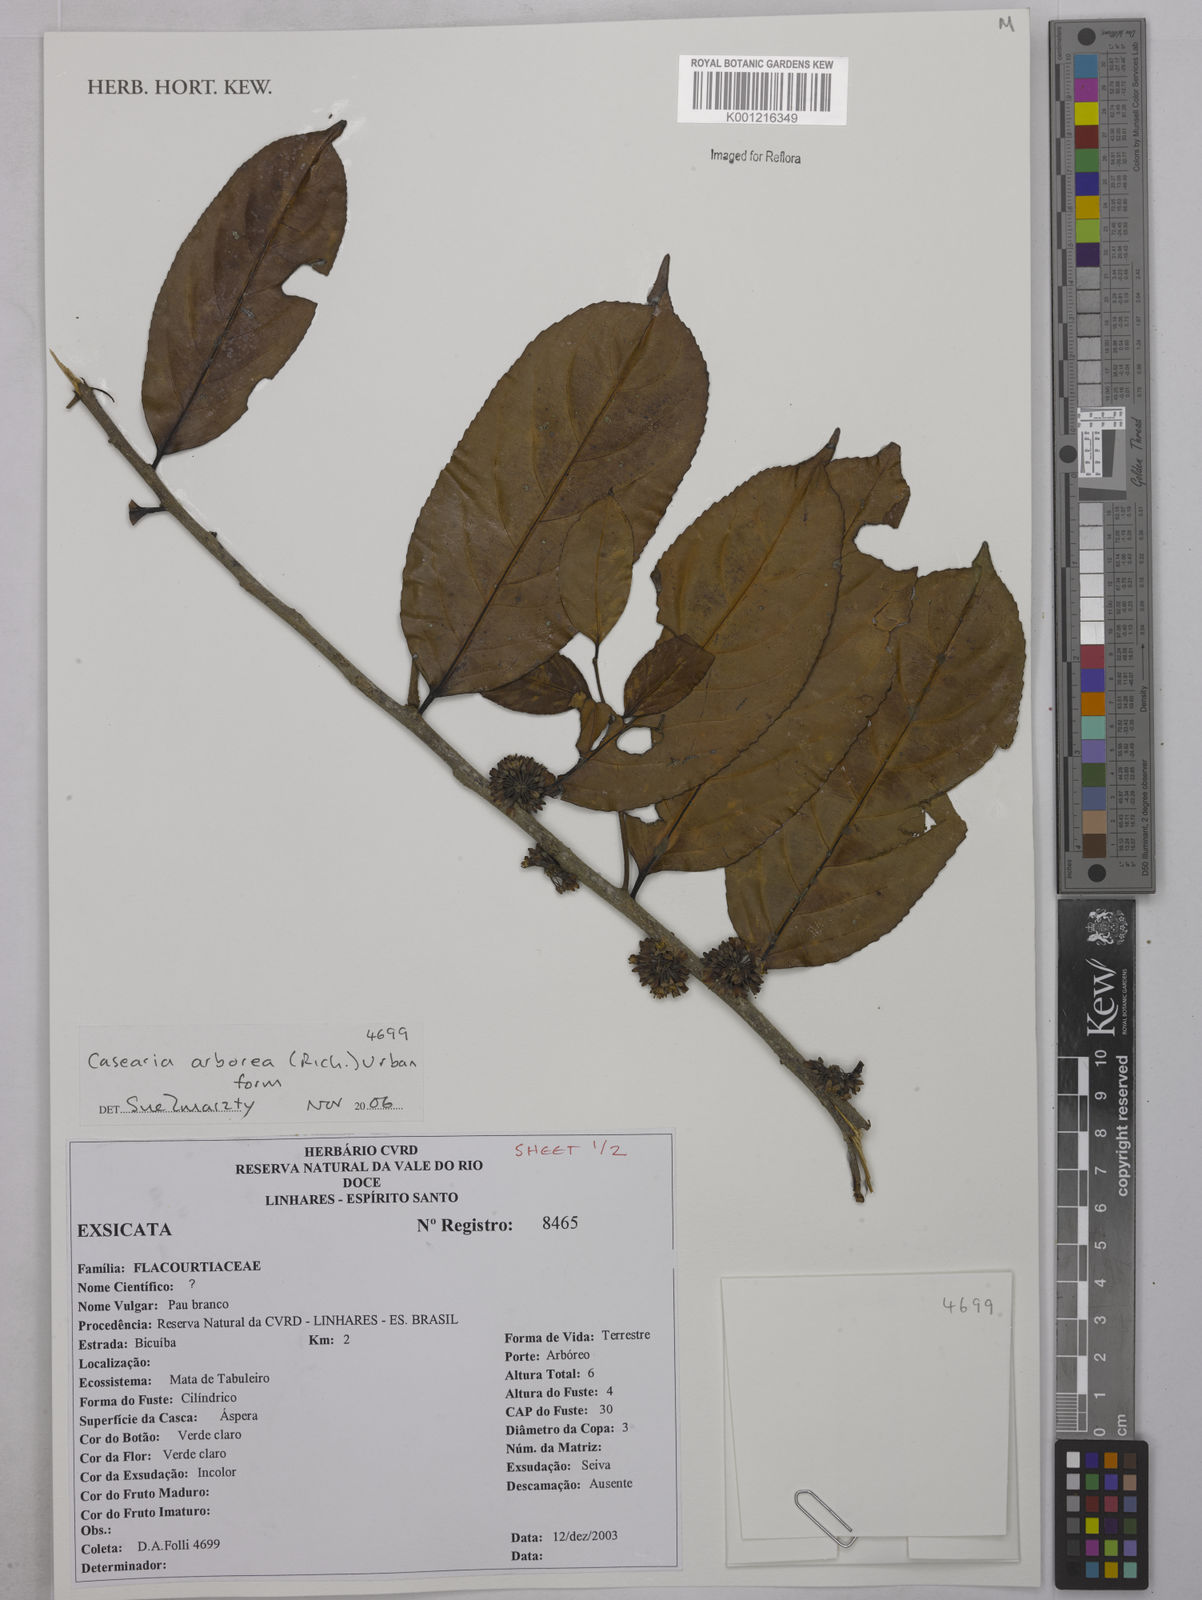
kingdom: Plantae
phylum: Tracheophyta
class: Magnoliopsida
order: Malpighiales
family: Salicaceae
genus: Casearia
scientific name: Casearia arborea
